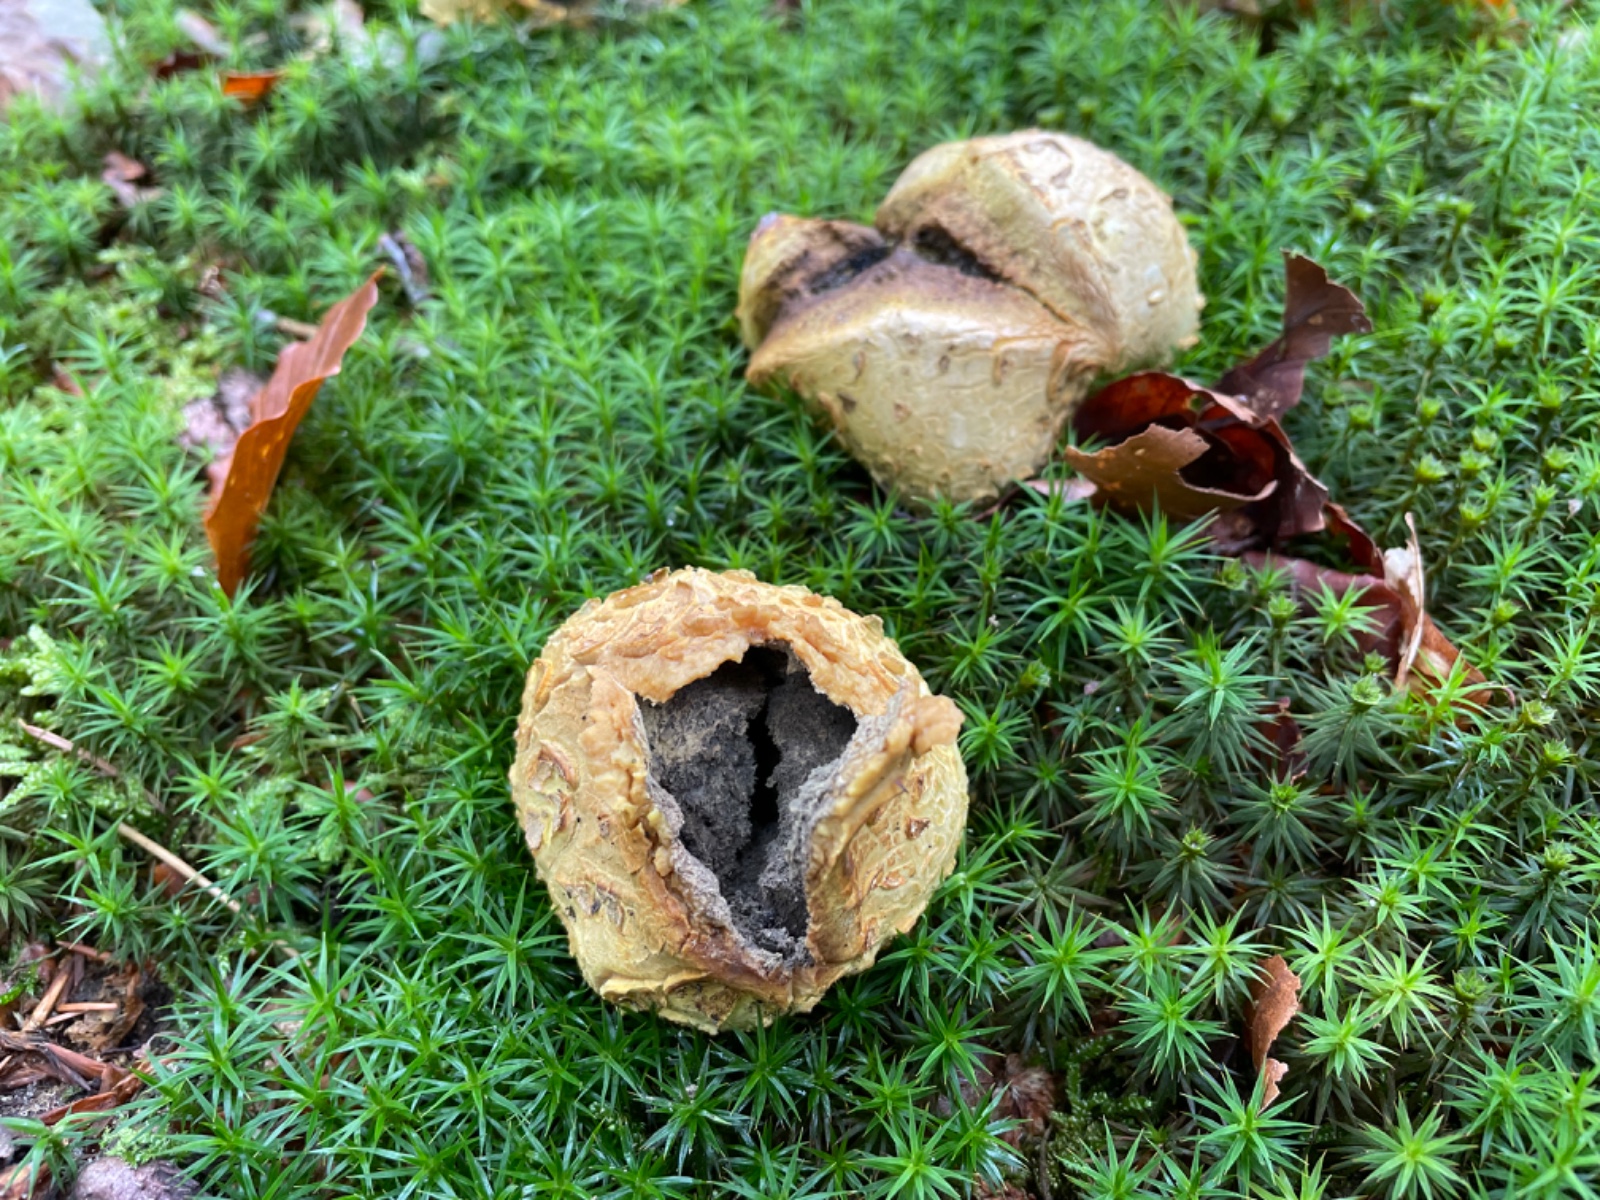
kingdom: Fungi
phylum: Basidiomycota
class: Agaricomycetes
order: Boletales
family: Sclerodermataceae
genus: Scleroderma
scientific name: Scleroderma citrinum
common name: almindelig bruskbold
